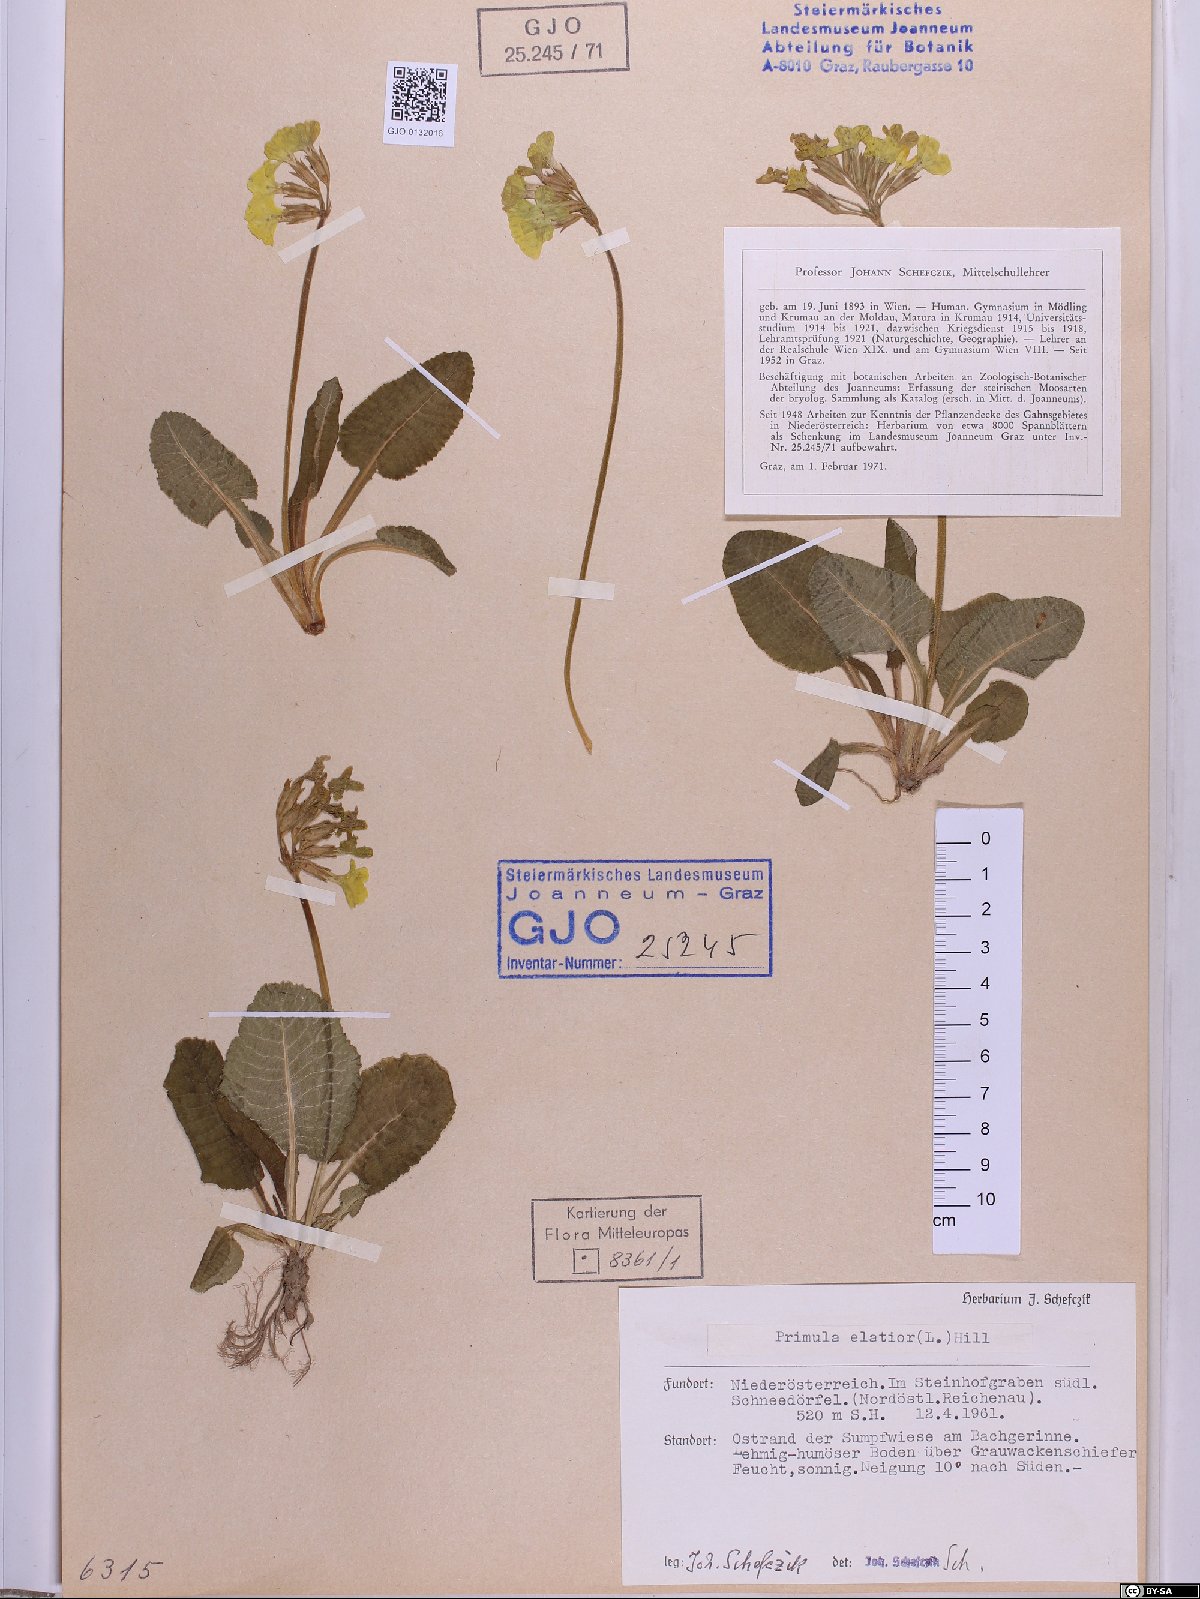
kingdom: Plantae
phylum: Tracheophyta
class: Magnoliopsida
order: Ericales
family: Primulaceae
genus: Primula
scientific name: Primula elatior
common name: Oxlip
